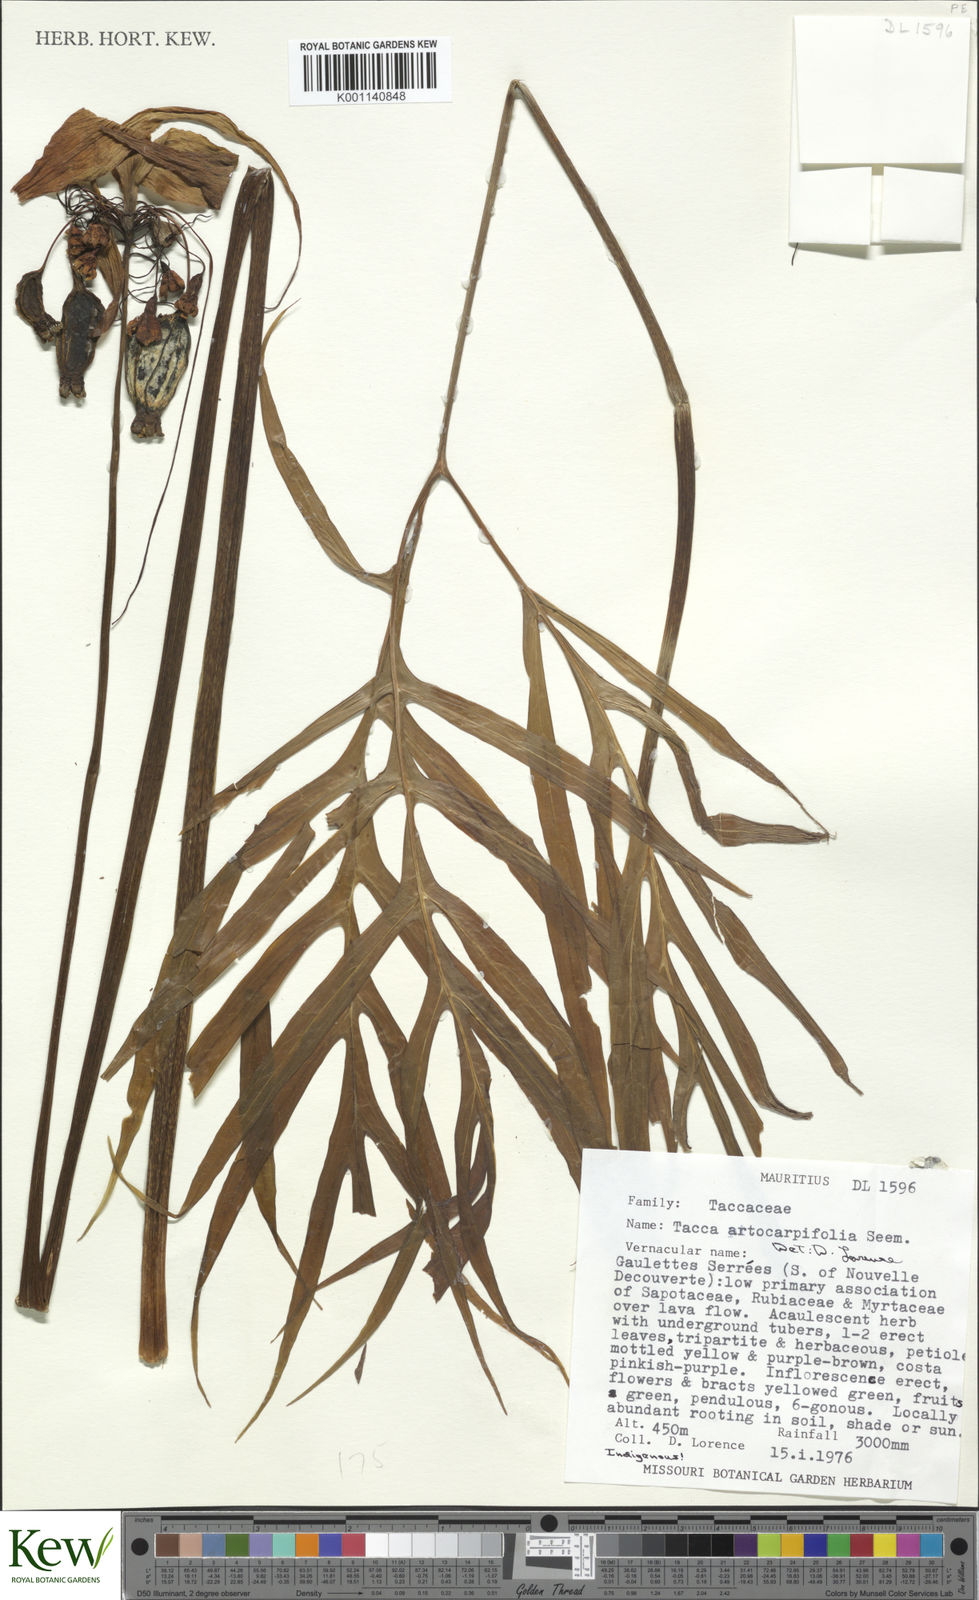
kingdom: Plantae
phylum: Tracheophyta
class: Liliopsida
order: Dioscoreales
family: Dioscoreaceae
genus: Tacca
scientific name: Tacca leontopetaloides
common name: Arrowroot
